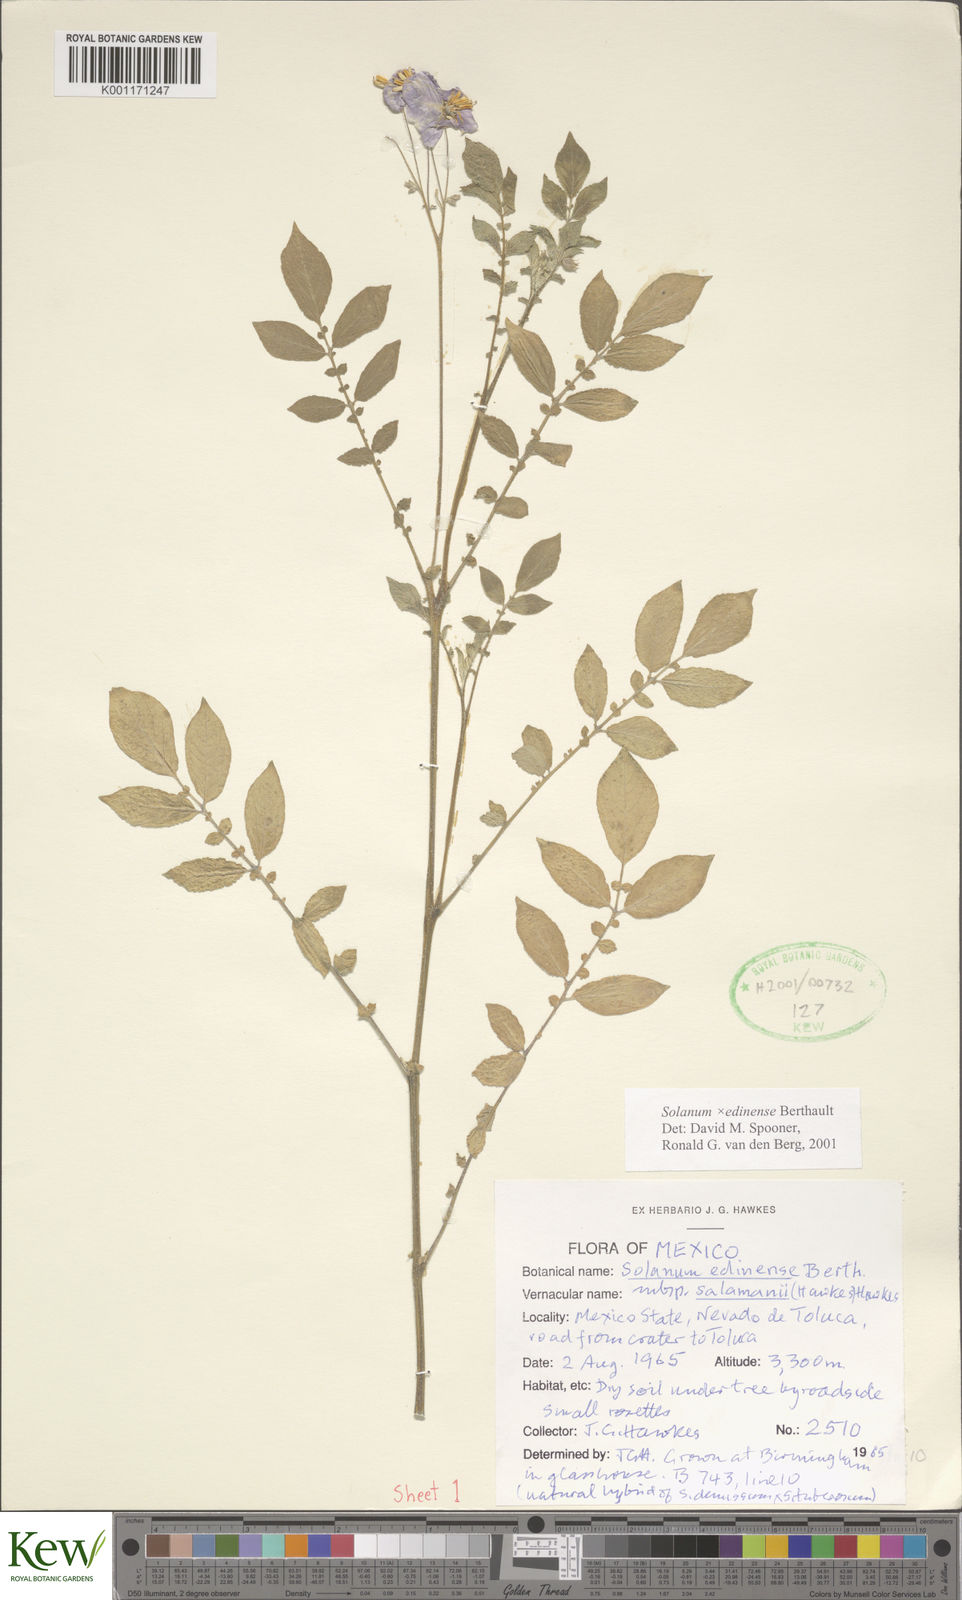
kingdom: Plantae
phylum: Tracheophyta
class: Magnoliopsida
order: Solanales
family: Solanaceae
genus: Solanum
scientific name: Solanum edinense
